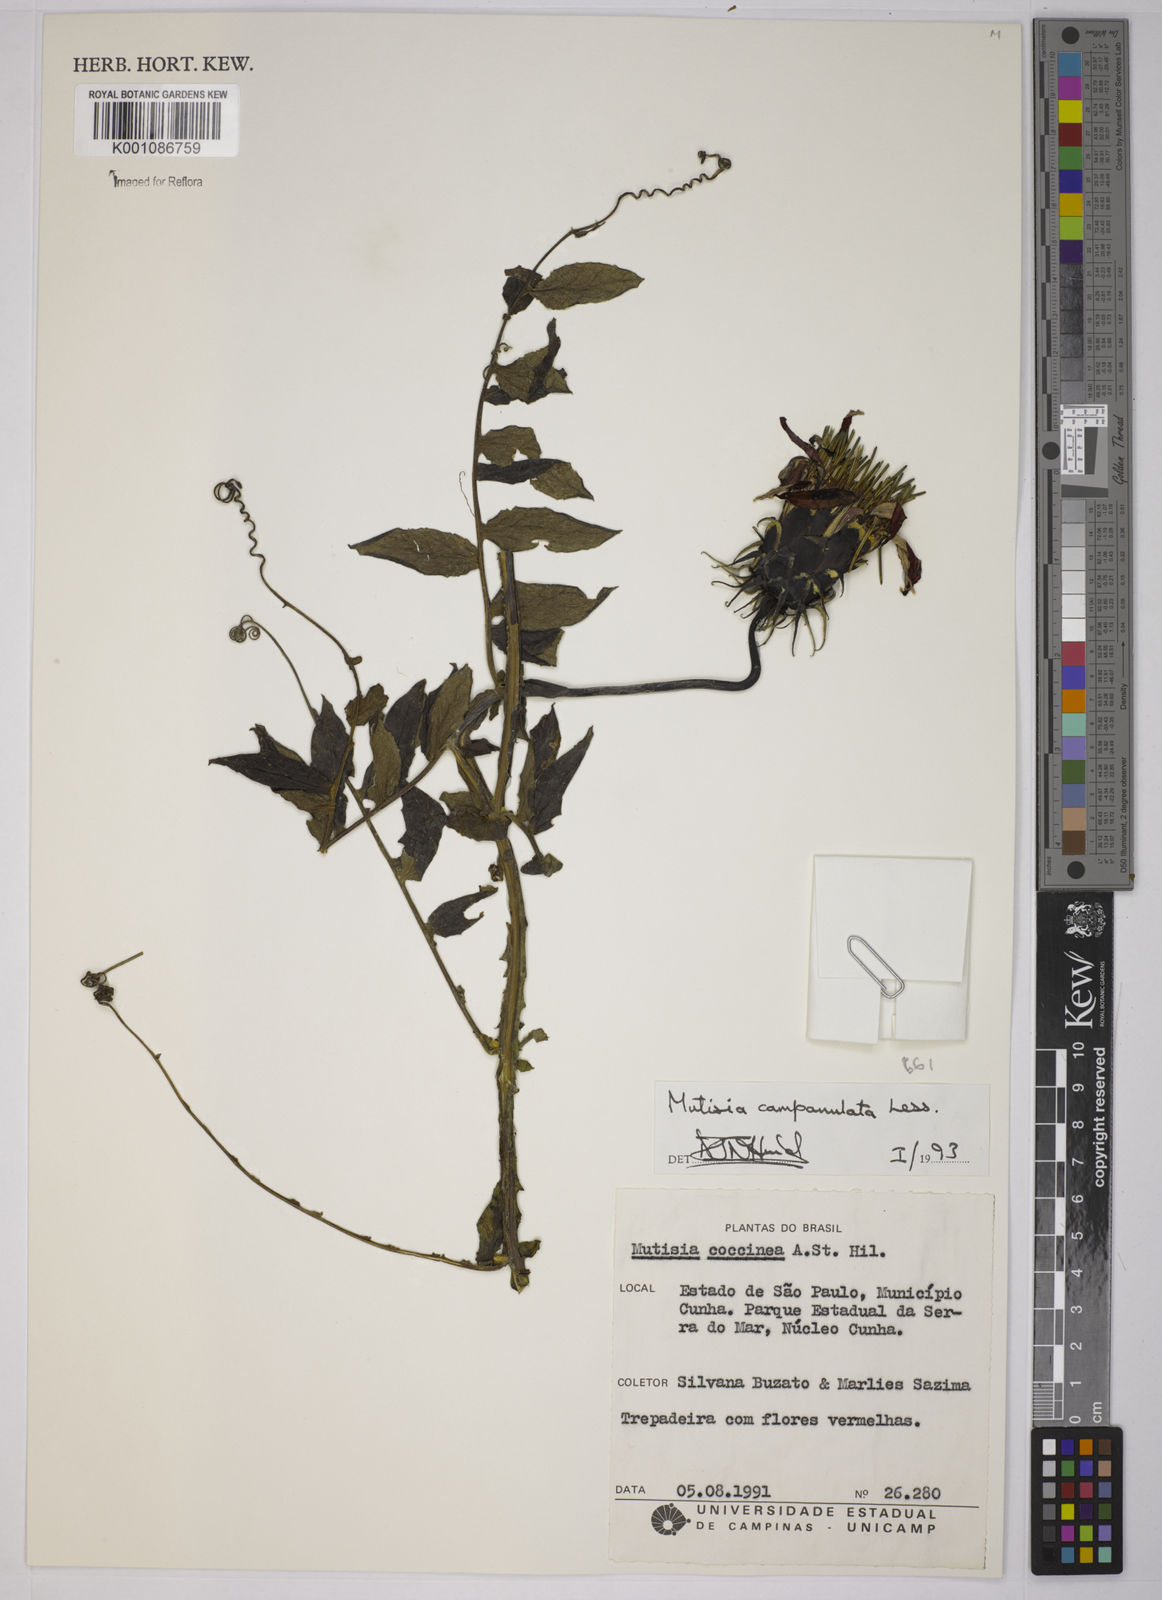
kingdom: Plantae
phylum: Tracheophyta
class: Magnoliopsida
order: Asterales
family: Asteraceae
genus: Mutisia
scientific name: Mutisia campanulata
